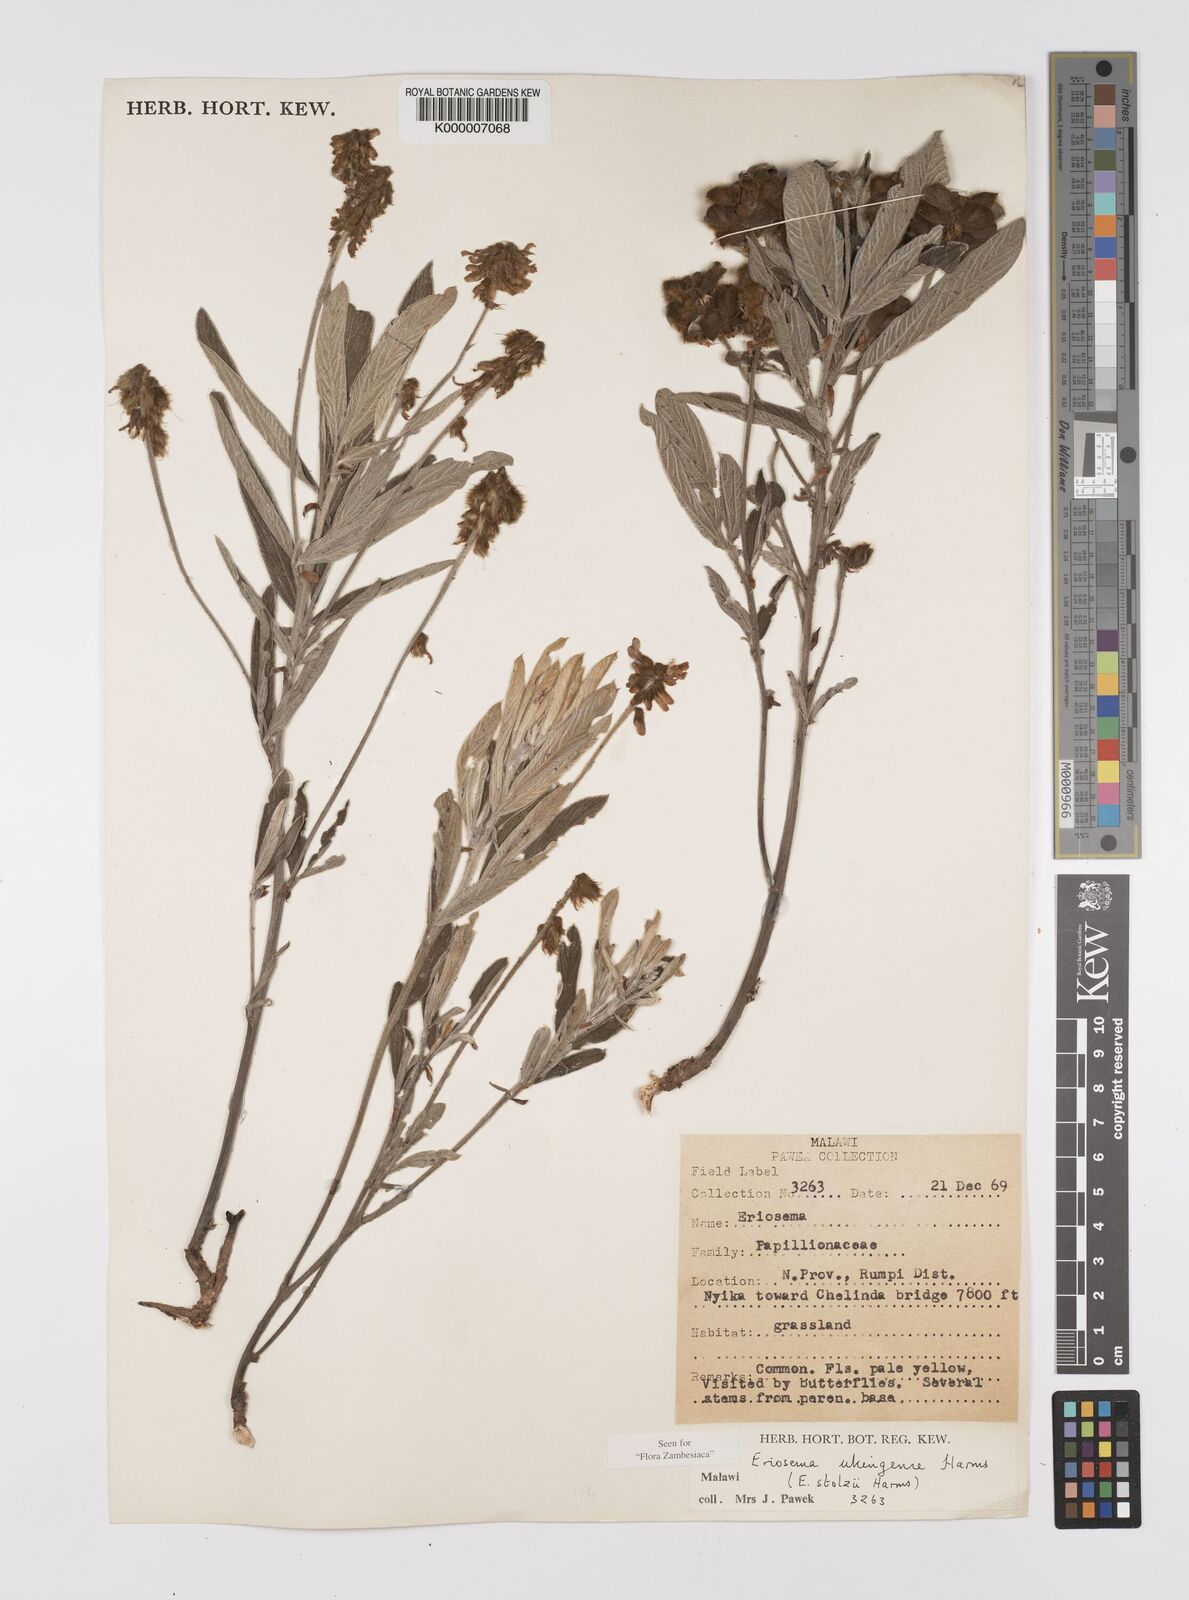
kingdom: Plantae
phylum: Tracheophyta
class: Magnoliopsida
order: Fabales
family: Fabaceae
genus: Eriosema
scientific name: Eriosema ukingense
